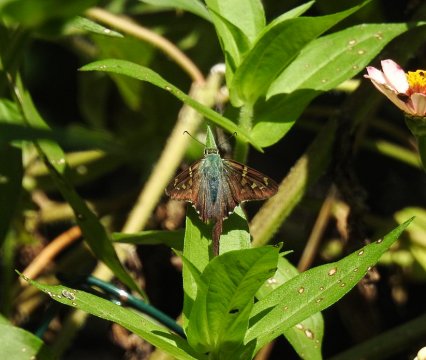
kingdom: Animalia
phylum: Arthropoda
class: Insecta
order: Lepidoptera
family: Hesperiidae
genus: Urbanus
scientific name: Urbanus proteus
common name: Long-tailed Skipper
